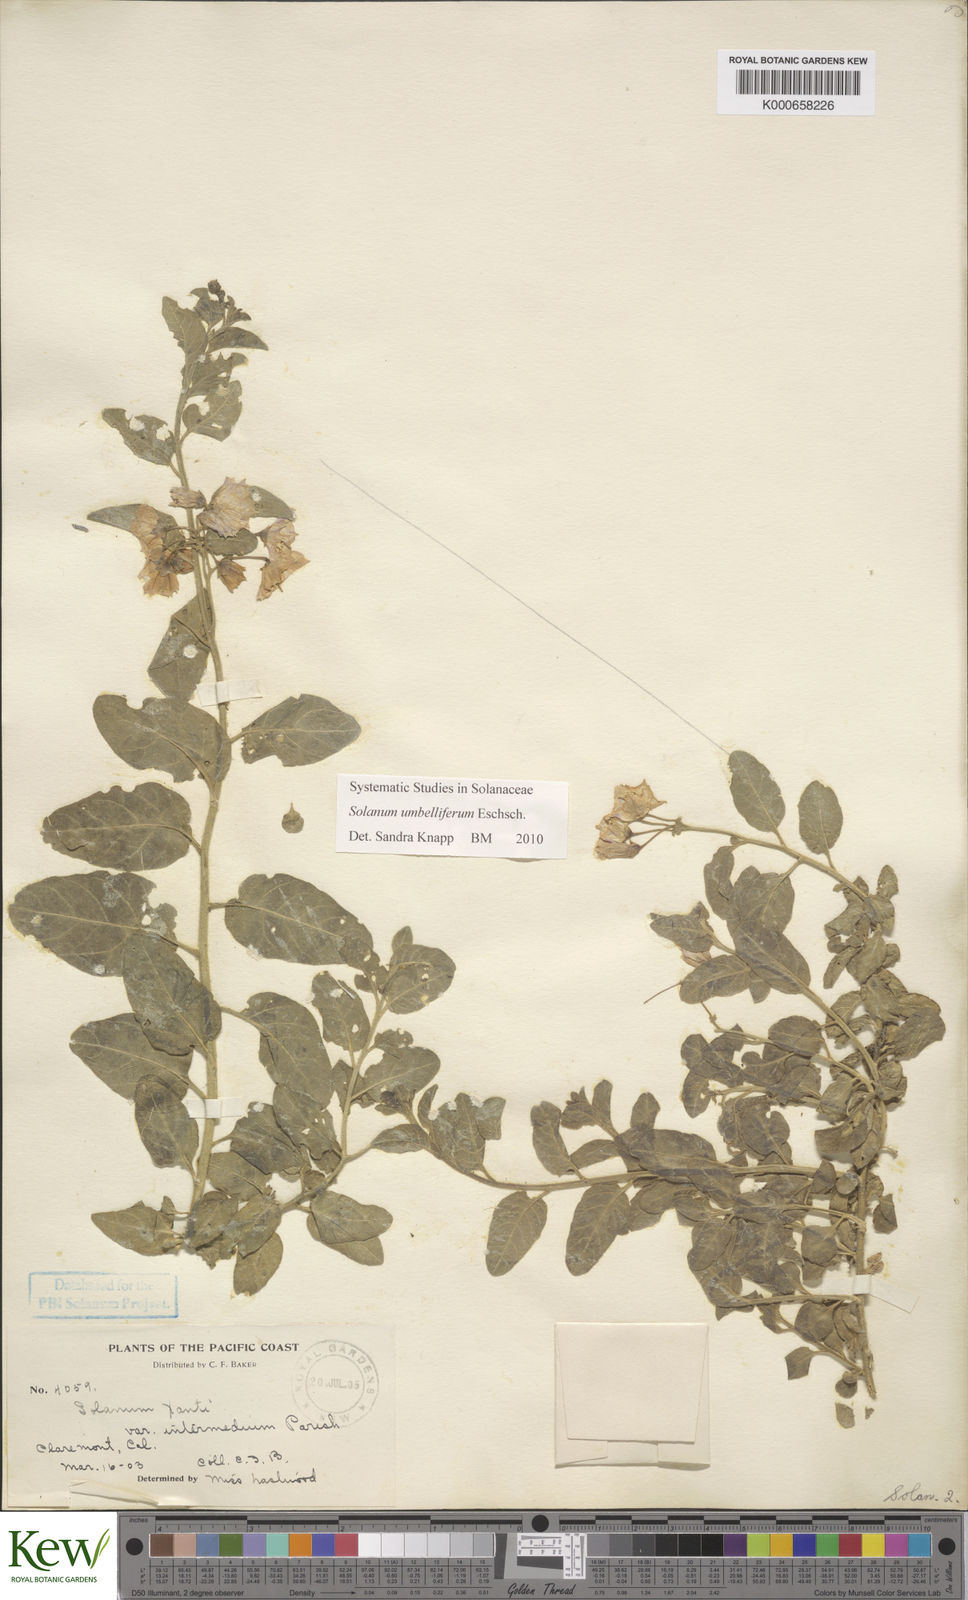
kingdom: Plantae
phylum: Tracheophyta
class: Magnoliopsida
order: Solanales
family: Solanaceae
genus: Solanum
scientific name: Solanum umbelliferum
